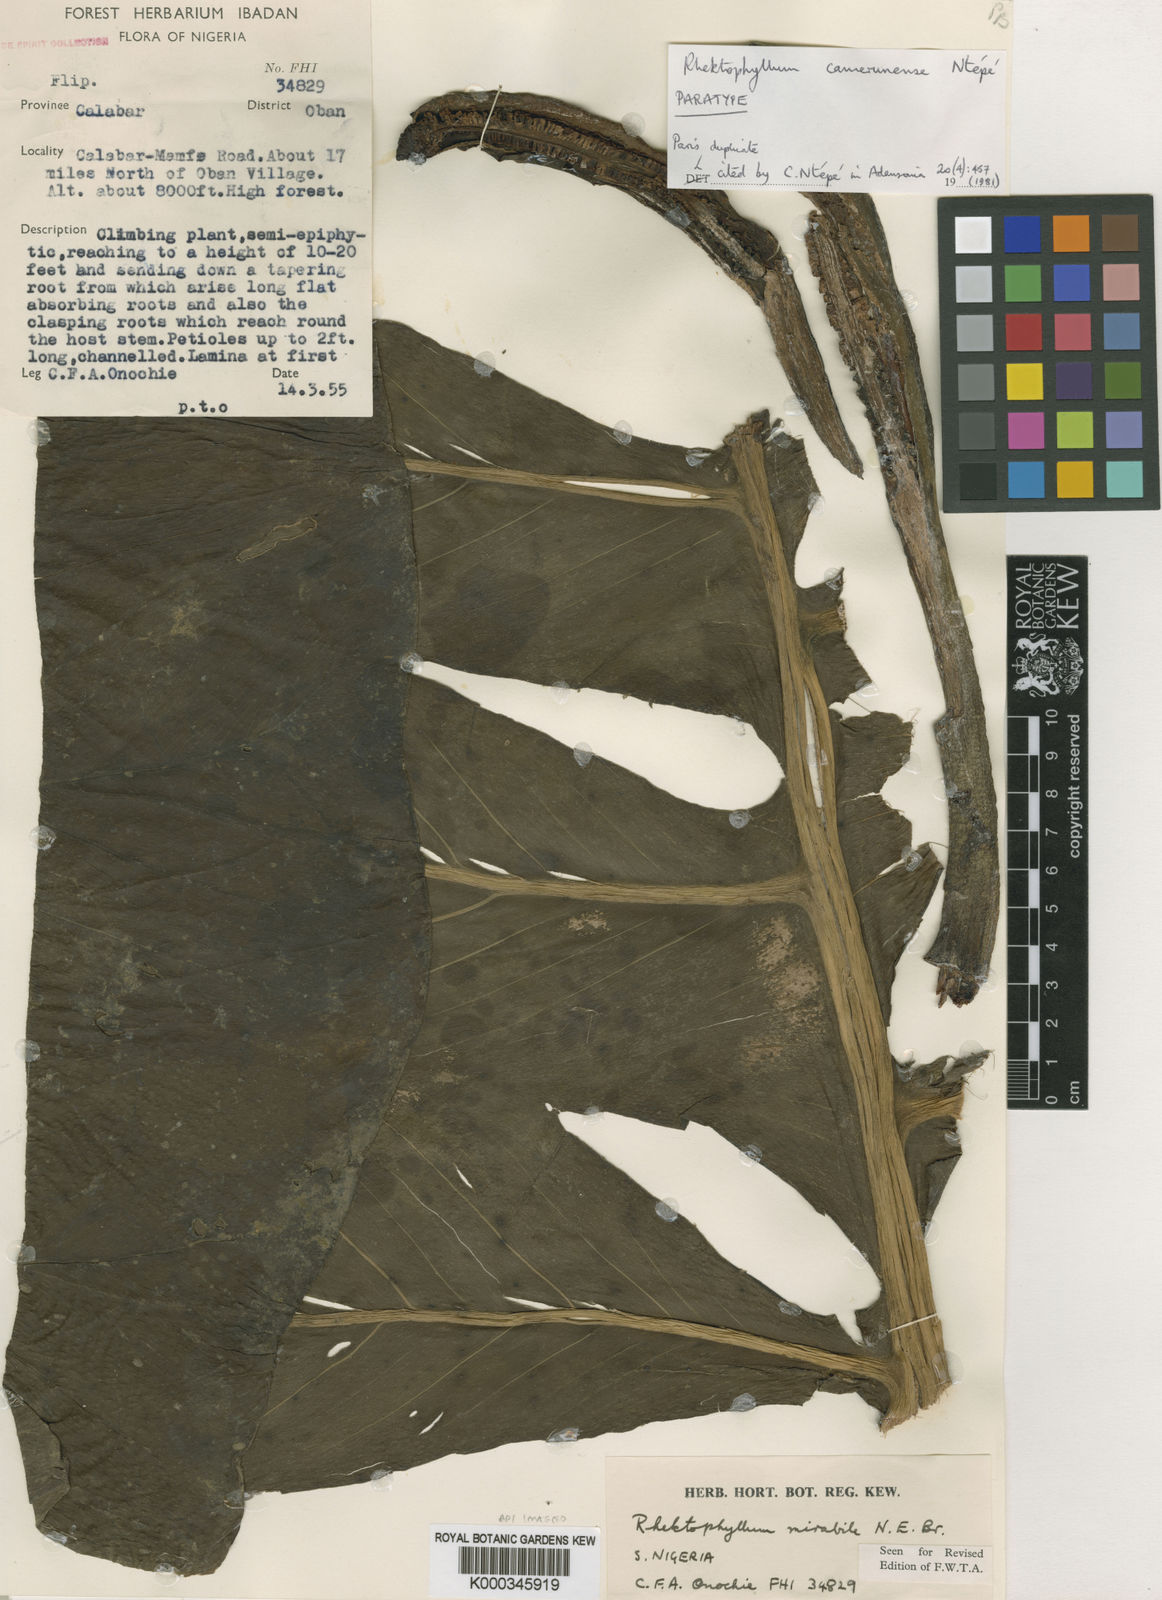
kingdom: Plantae
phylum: Tracheophyta
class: Liliopsida
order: Alismatales
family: Araceae
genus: Cercestis
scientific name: Cercestis camerunensis
